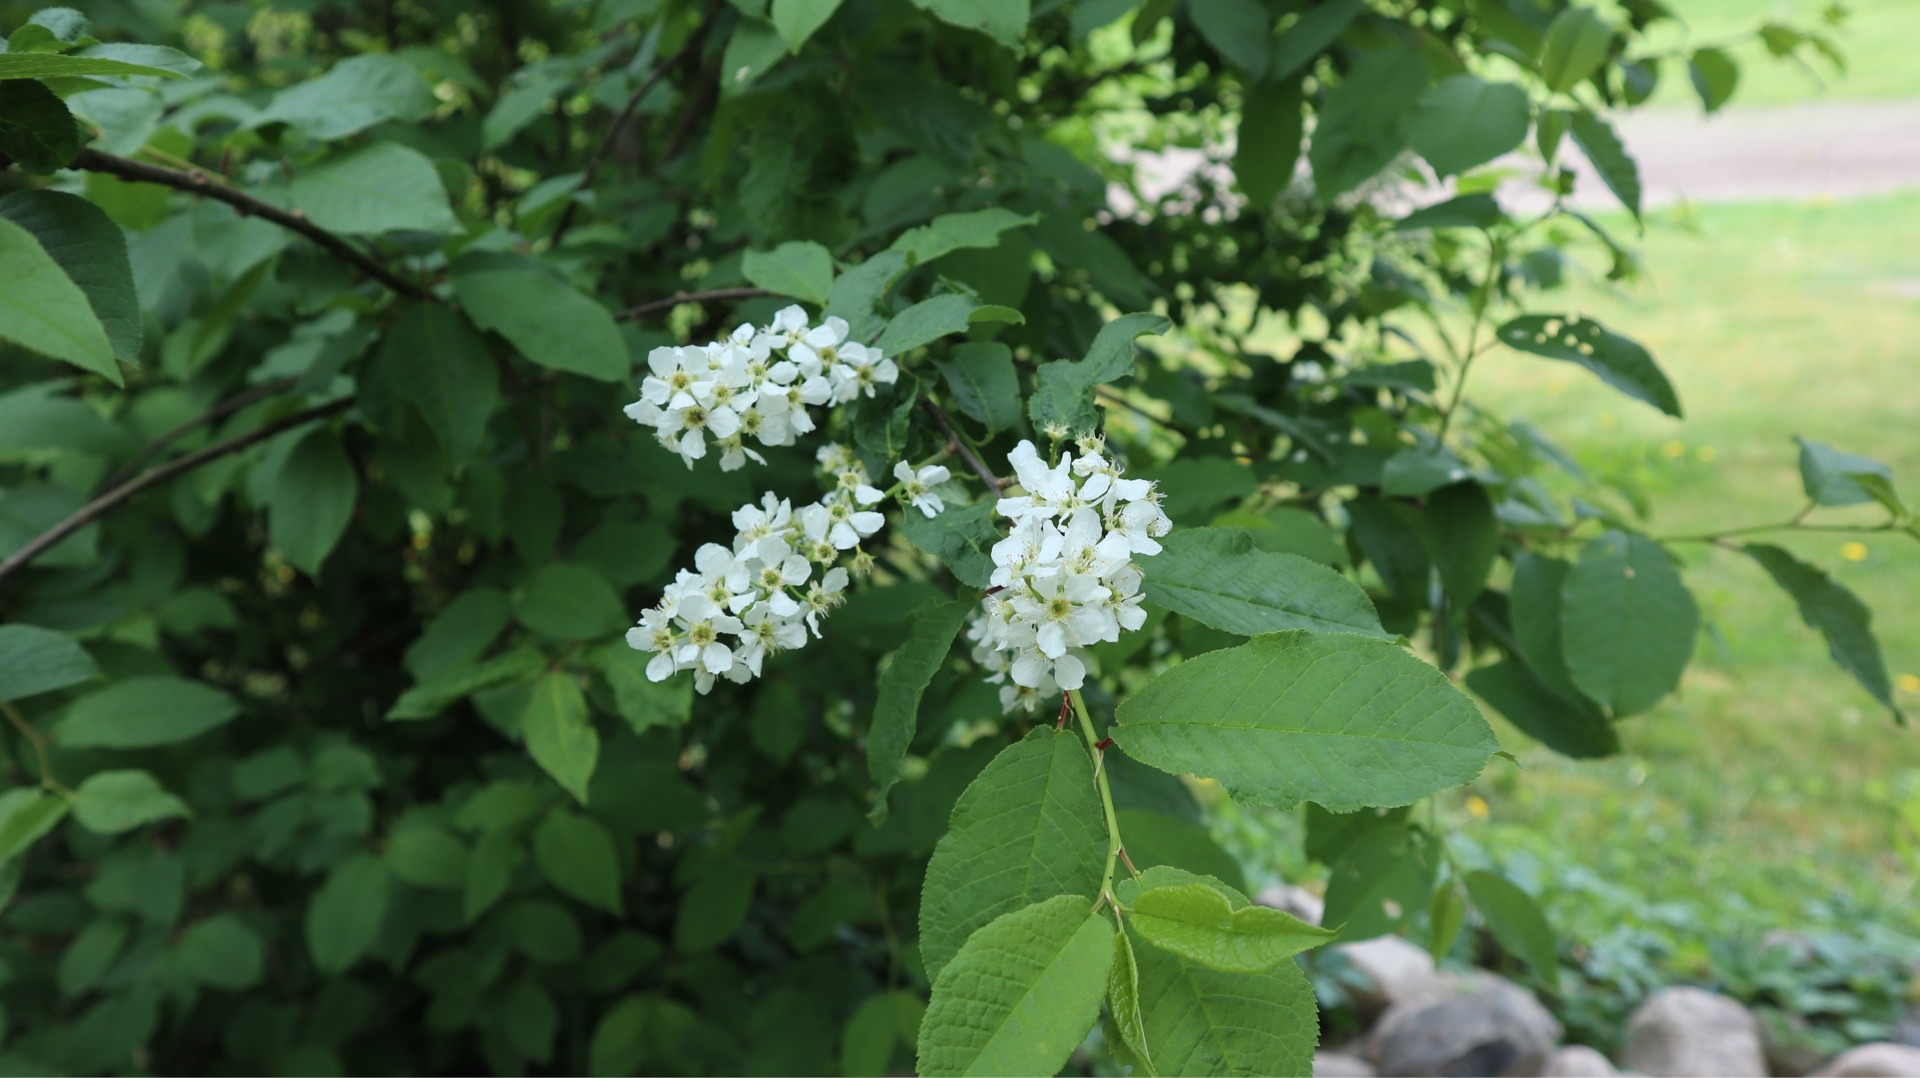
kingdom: Plantae
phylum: Tracheophyta
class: Magnoliopsida
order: Rosales
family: Rosaceae
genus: Prunus
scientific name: Prunus padus
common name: Almindelig hæg
